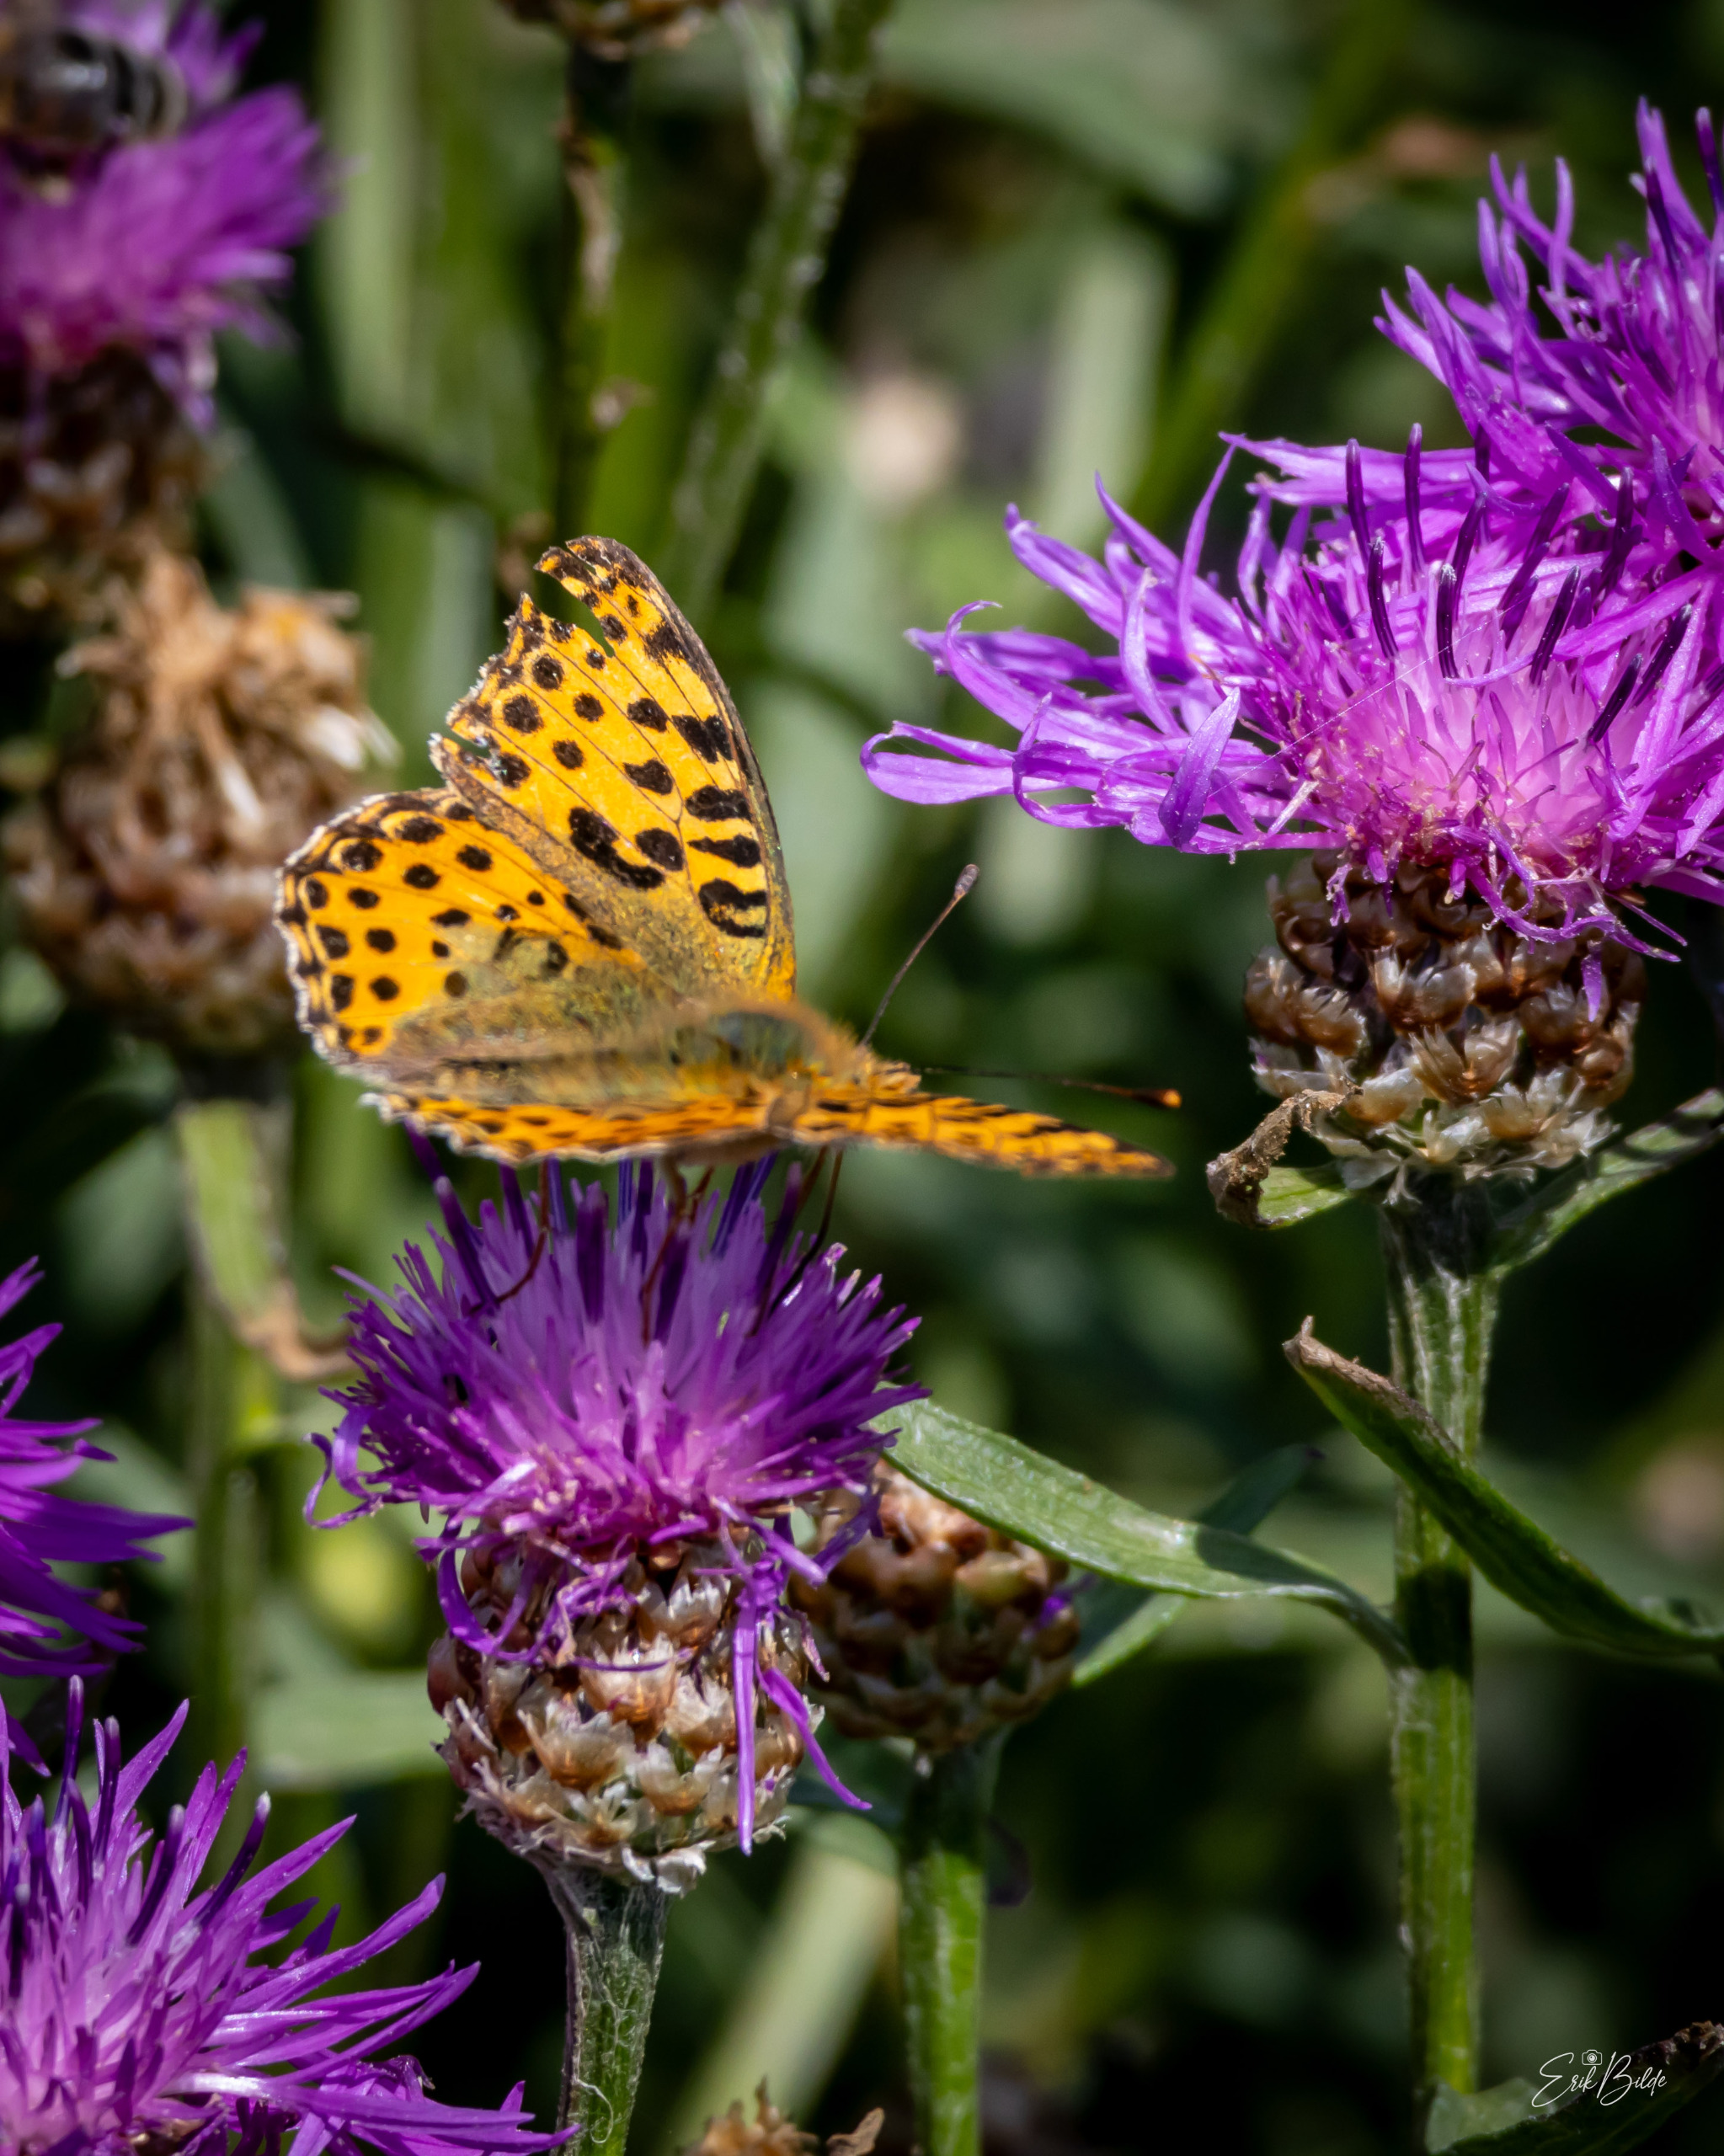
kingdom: Animalia
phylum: Arthropoda
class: Insecta
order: Lepidoptera
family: Nymphalidae
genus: Issoria
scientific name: Issoria lathonia
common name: Storplettet perlemorsommerfugl
